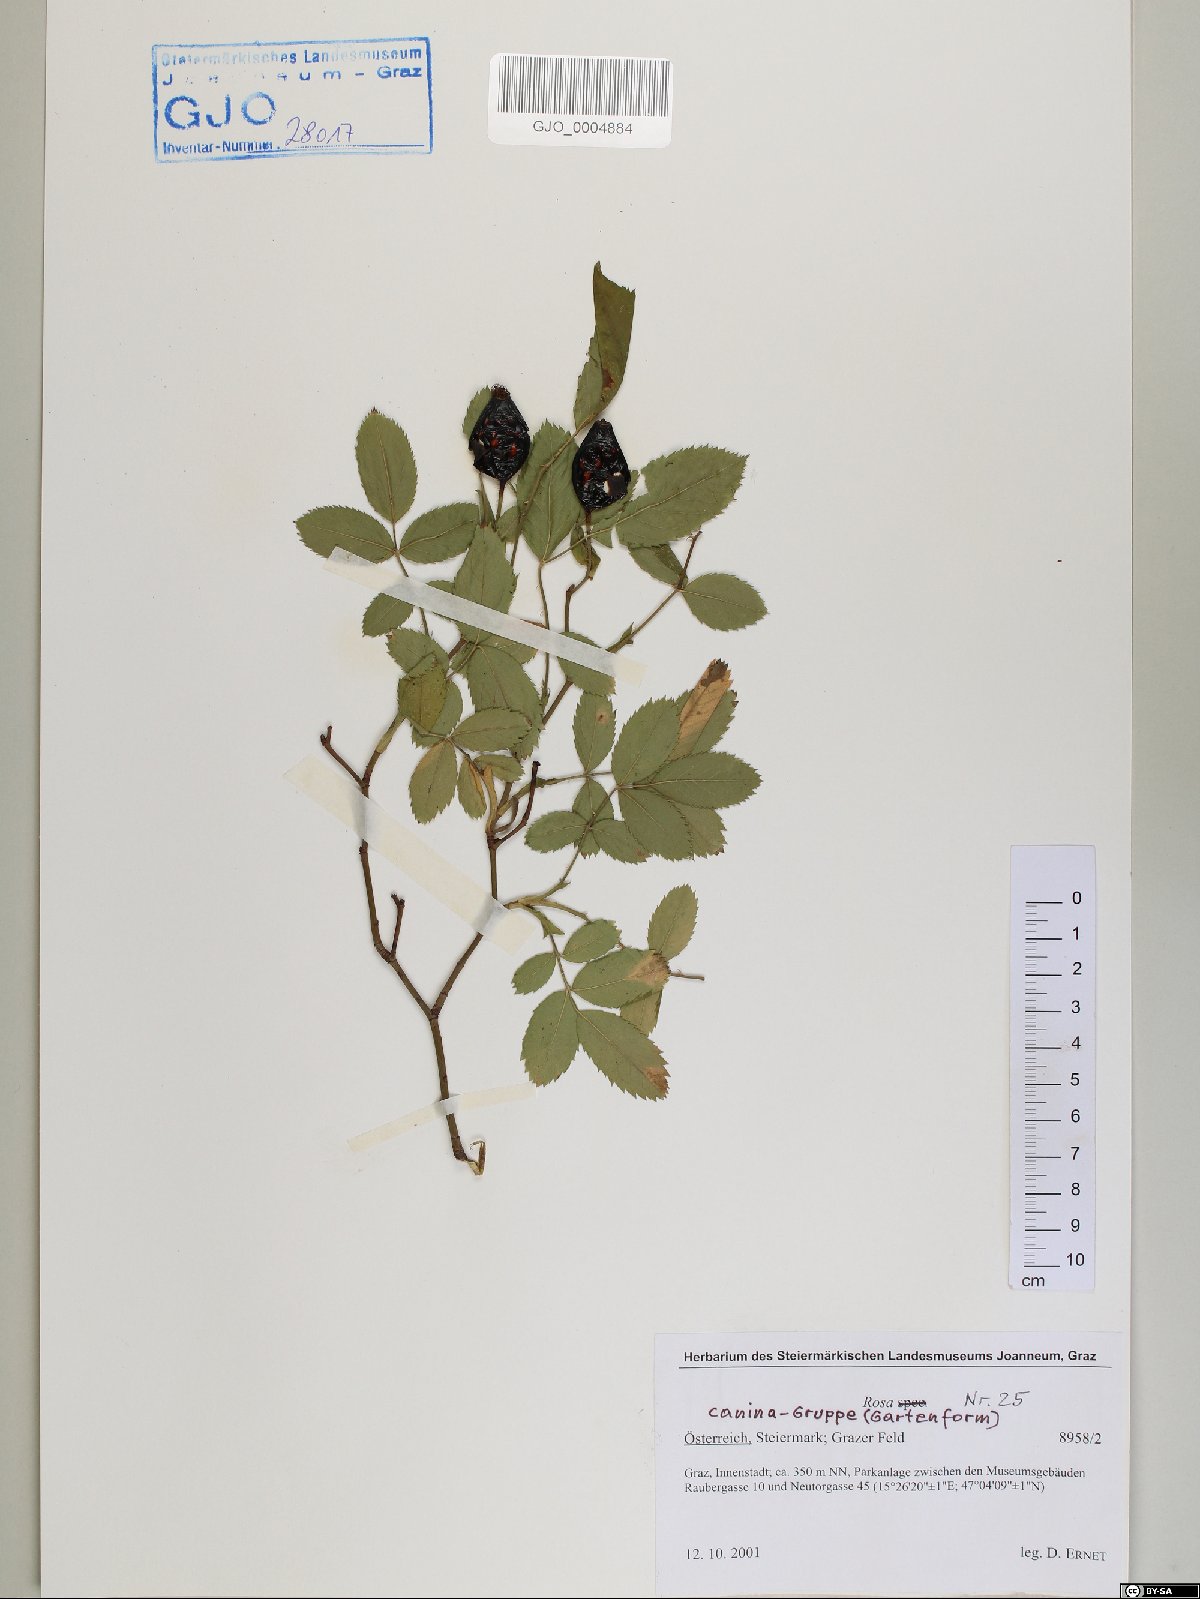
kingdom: Plantae
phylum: Tracheophyta
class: Magnoliopsida
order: Rosales
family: Rosaceae
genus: Rosa
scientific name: Rosa canina
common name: Dog rose
